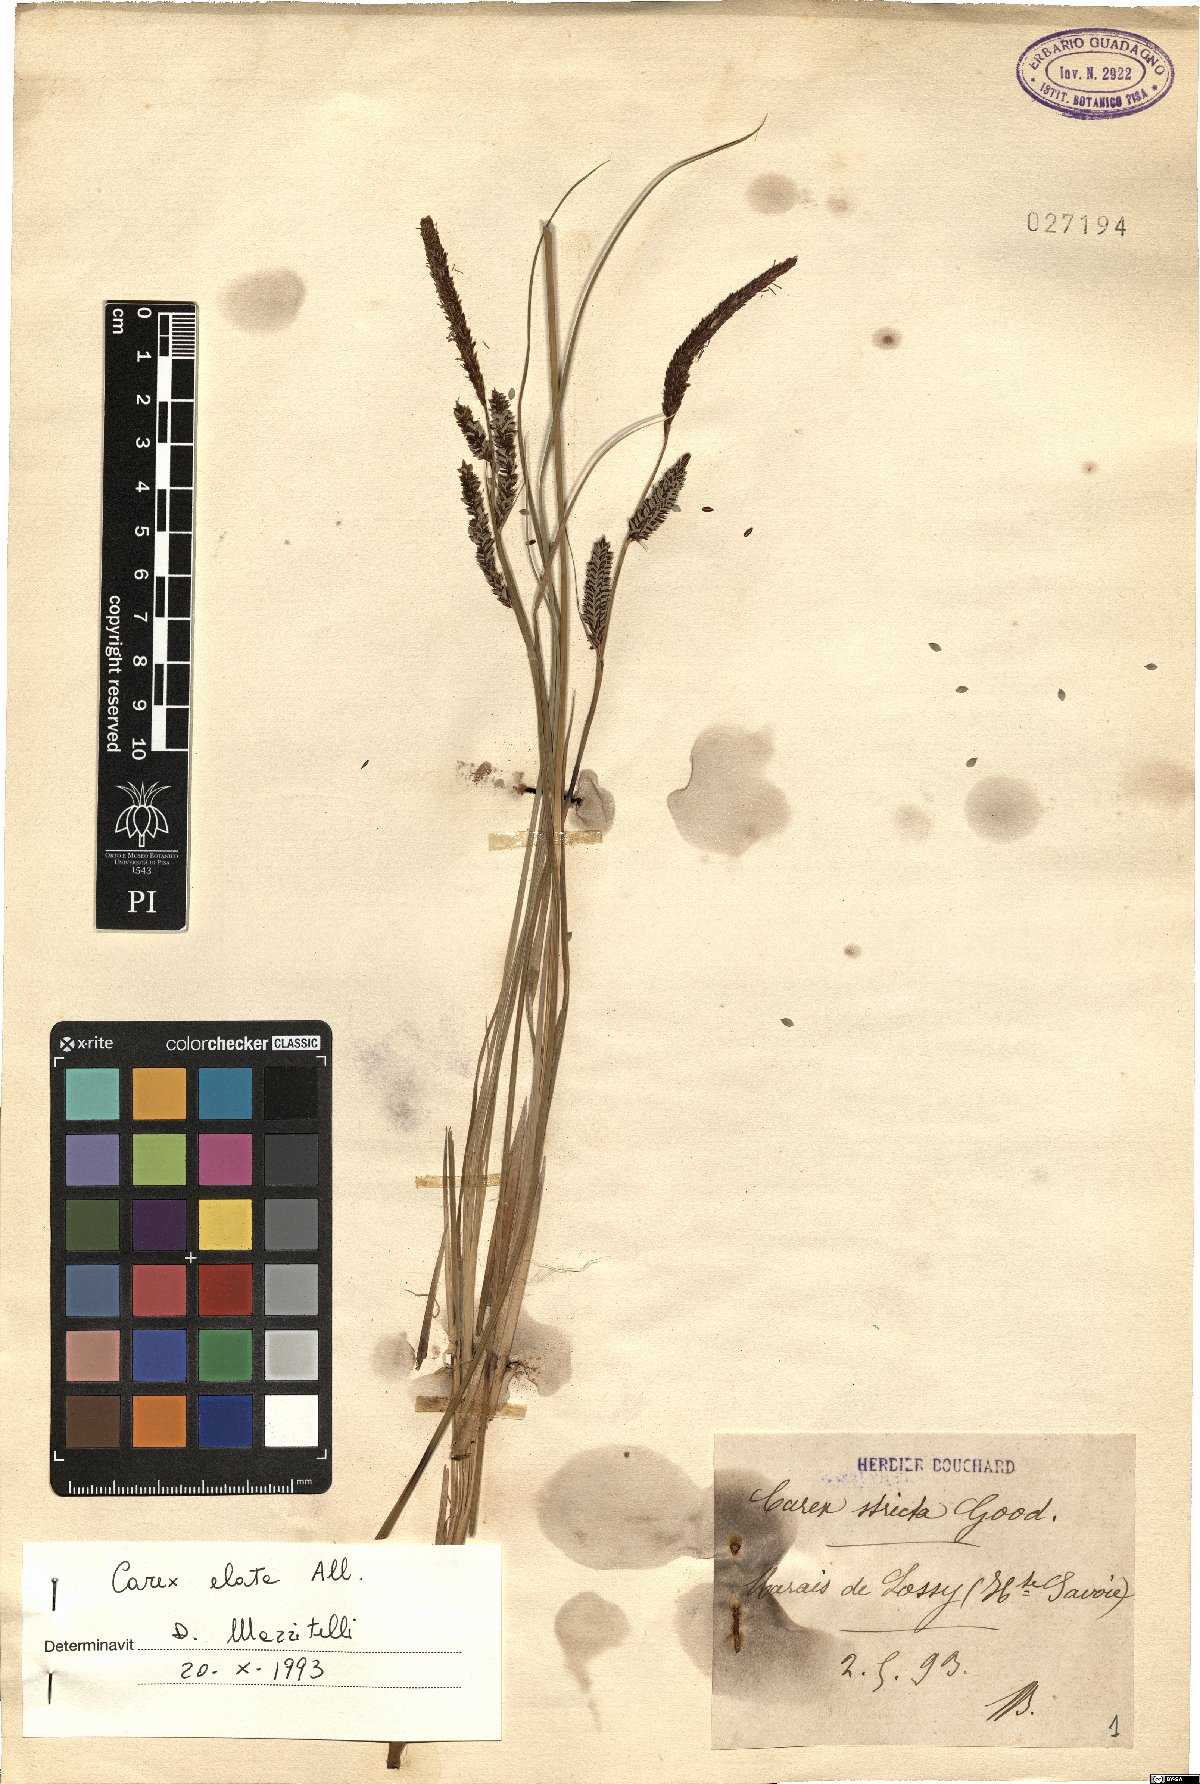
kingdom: Plantae
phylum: Tracheophyta
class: Liliopsida
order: Poales
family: Cyperaceae
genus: Carex
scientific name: Carex elata
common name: Tufted sedge
